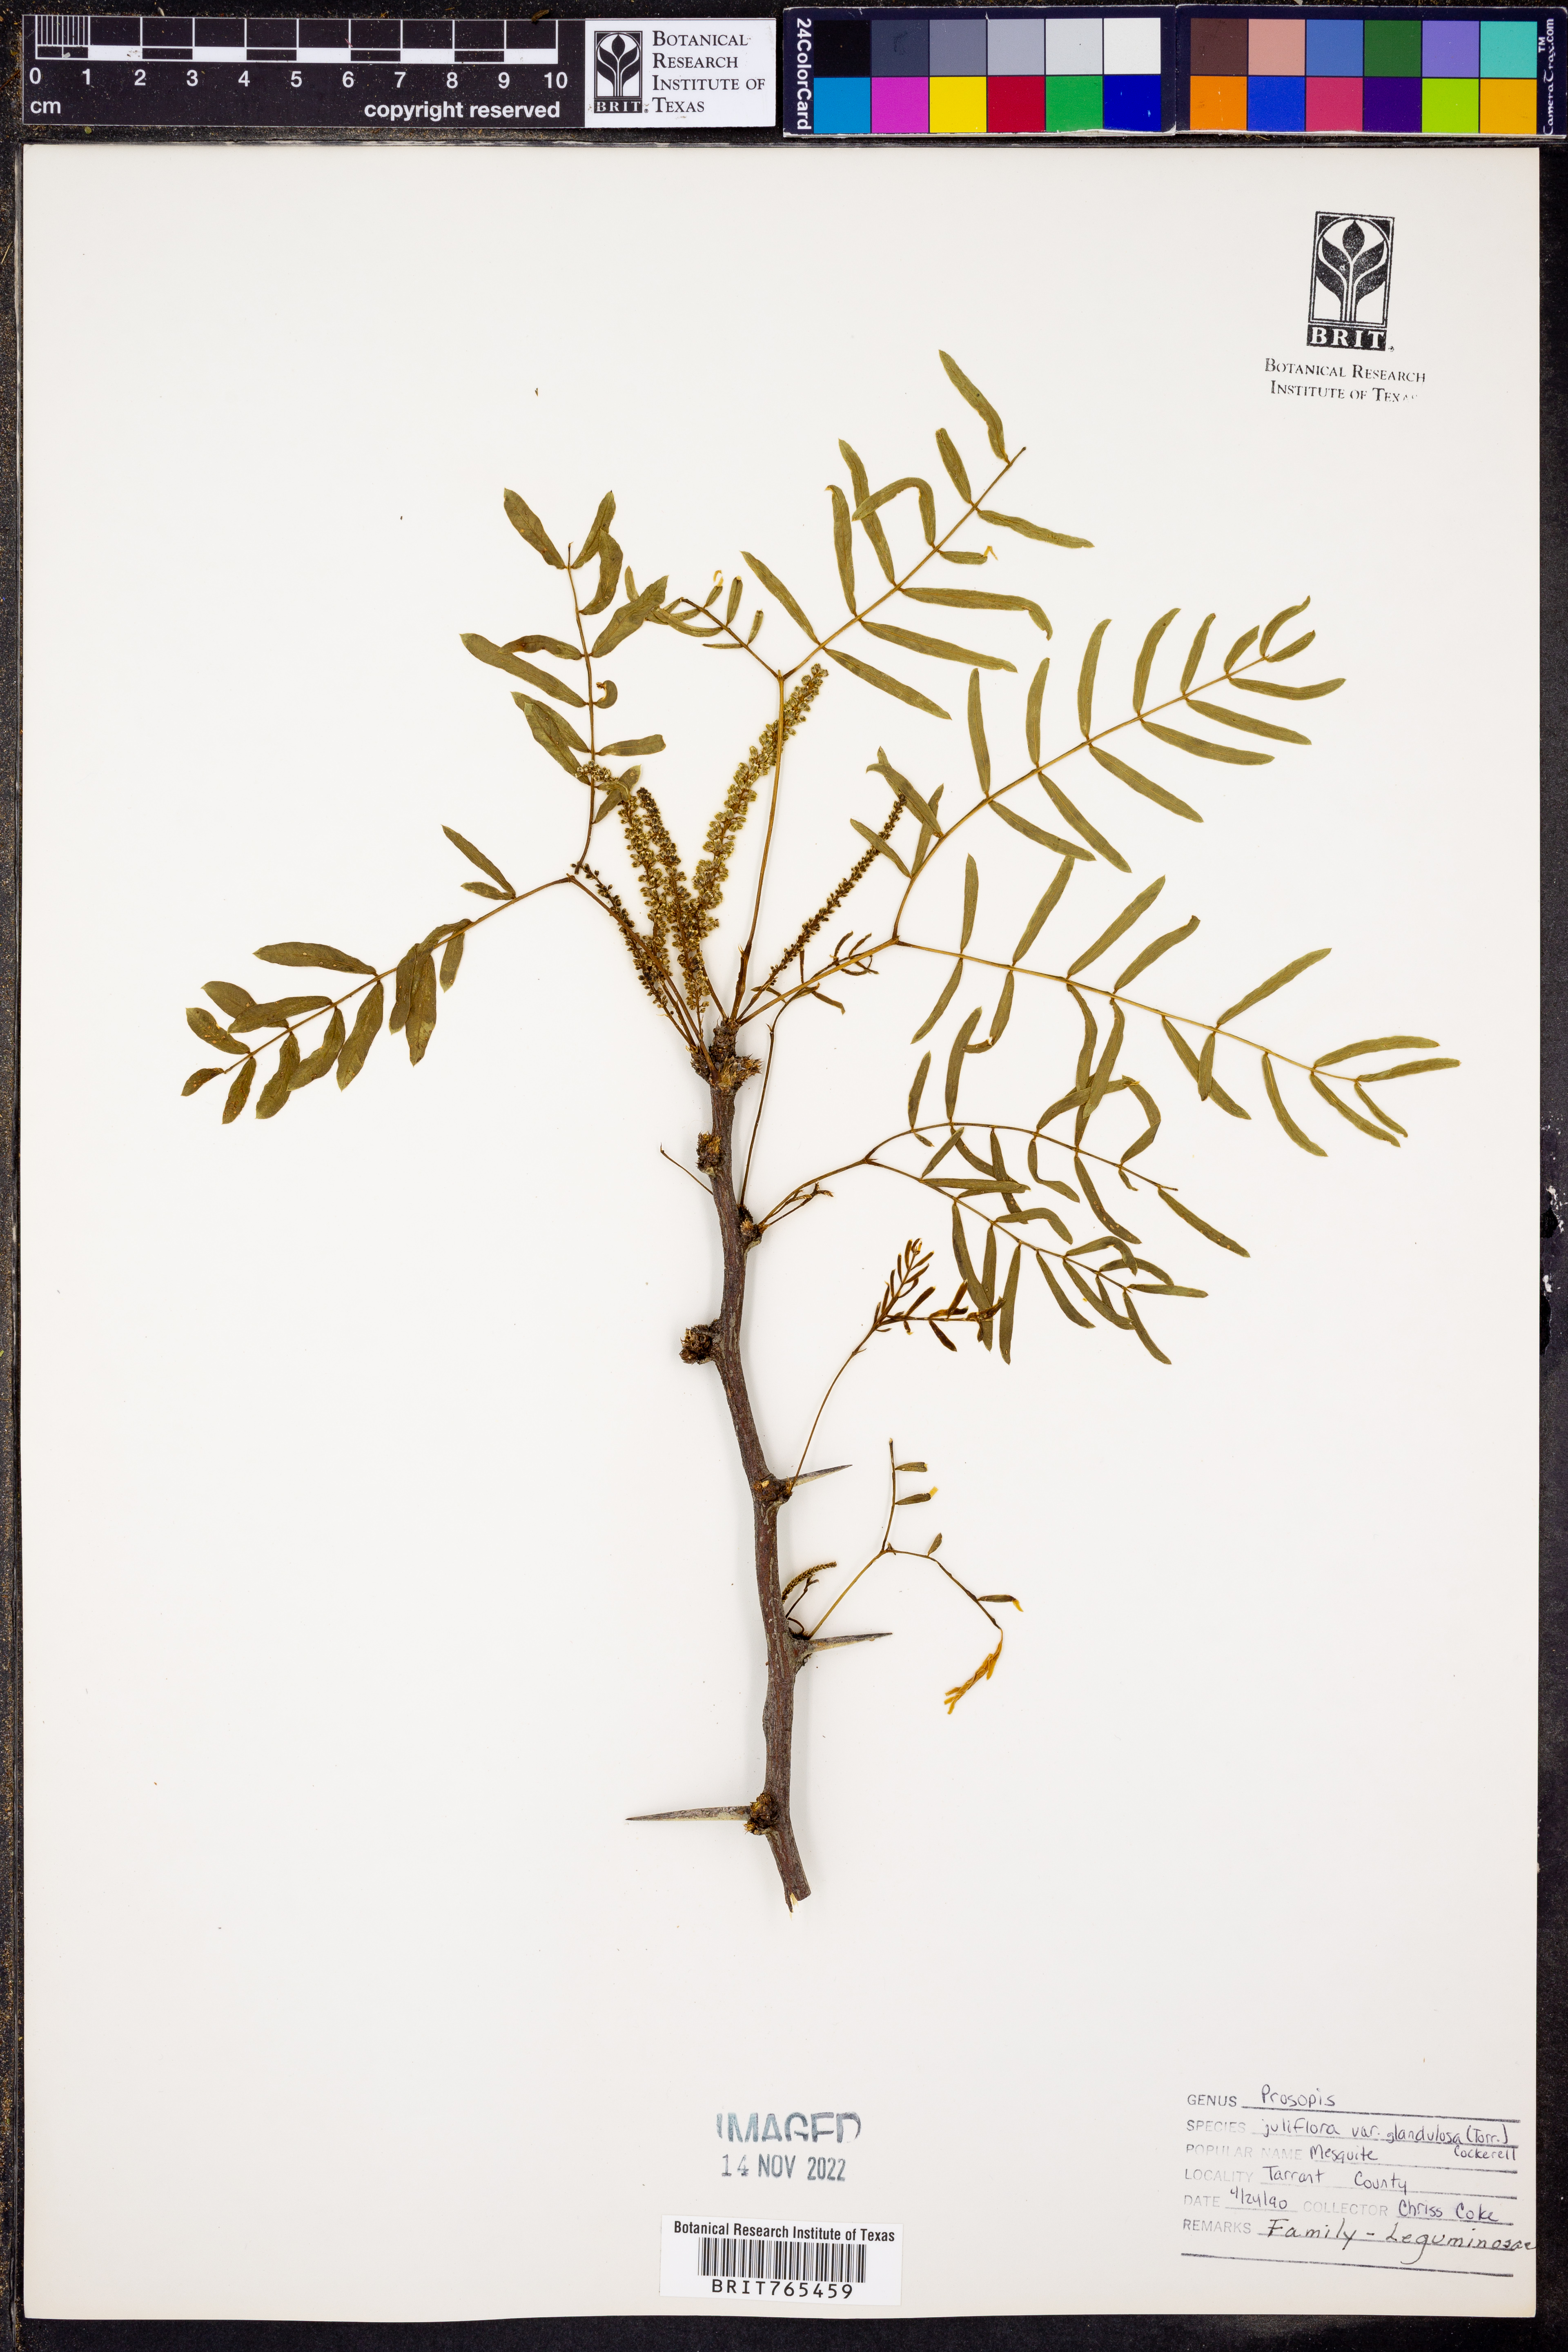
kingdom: Plantae
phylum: Tracheophyta
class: Magnoliopsida
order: Fabales
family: Fabaceae
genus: Prosopis
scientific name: Prosopis glandulosa
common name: Honey mesquite
